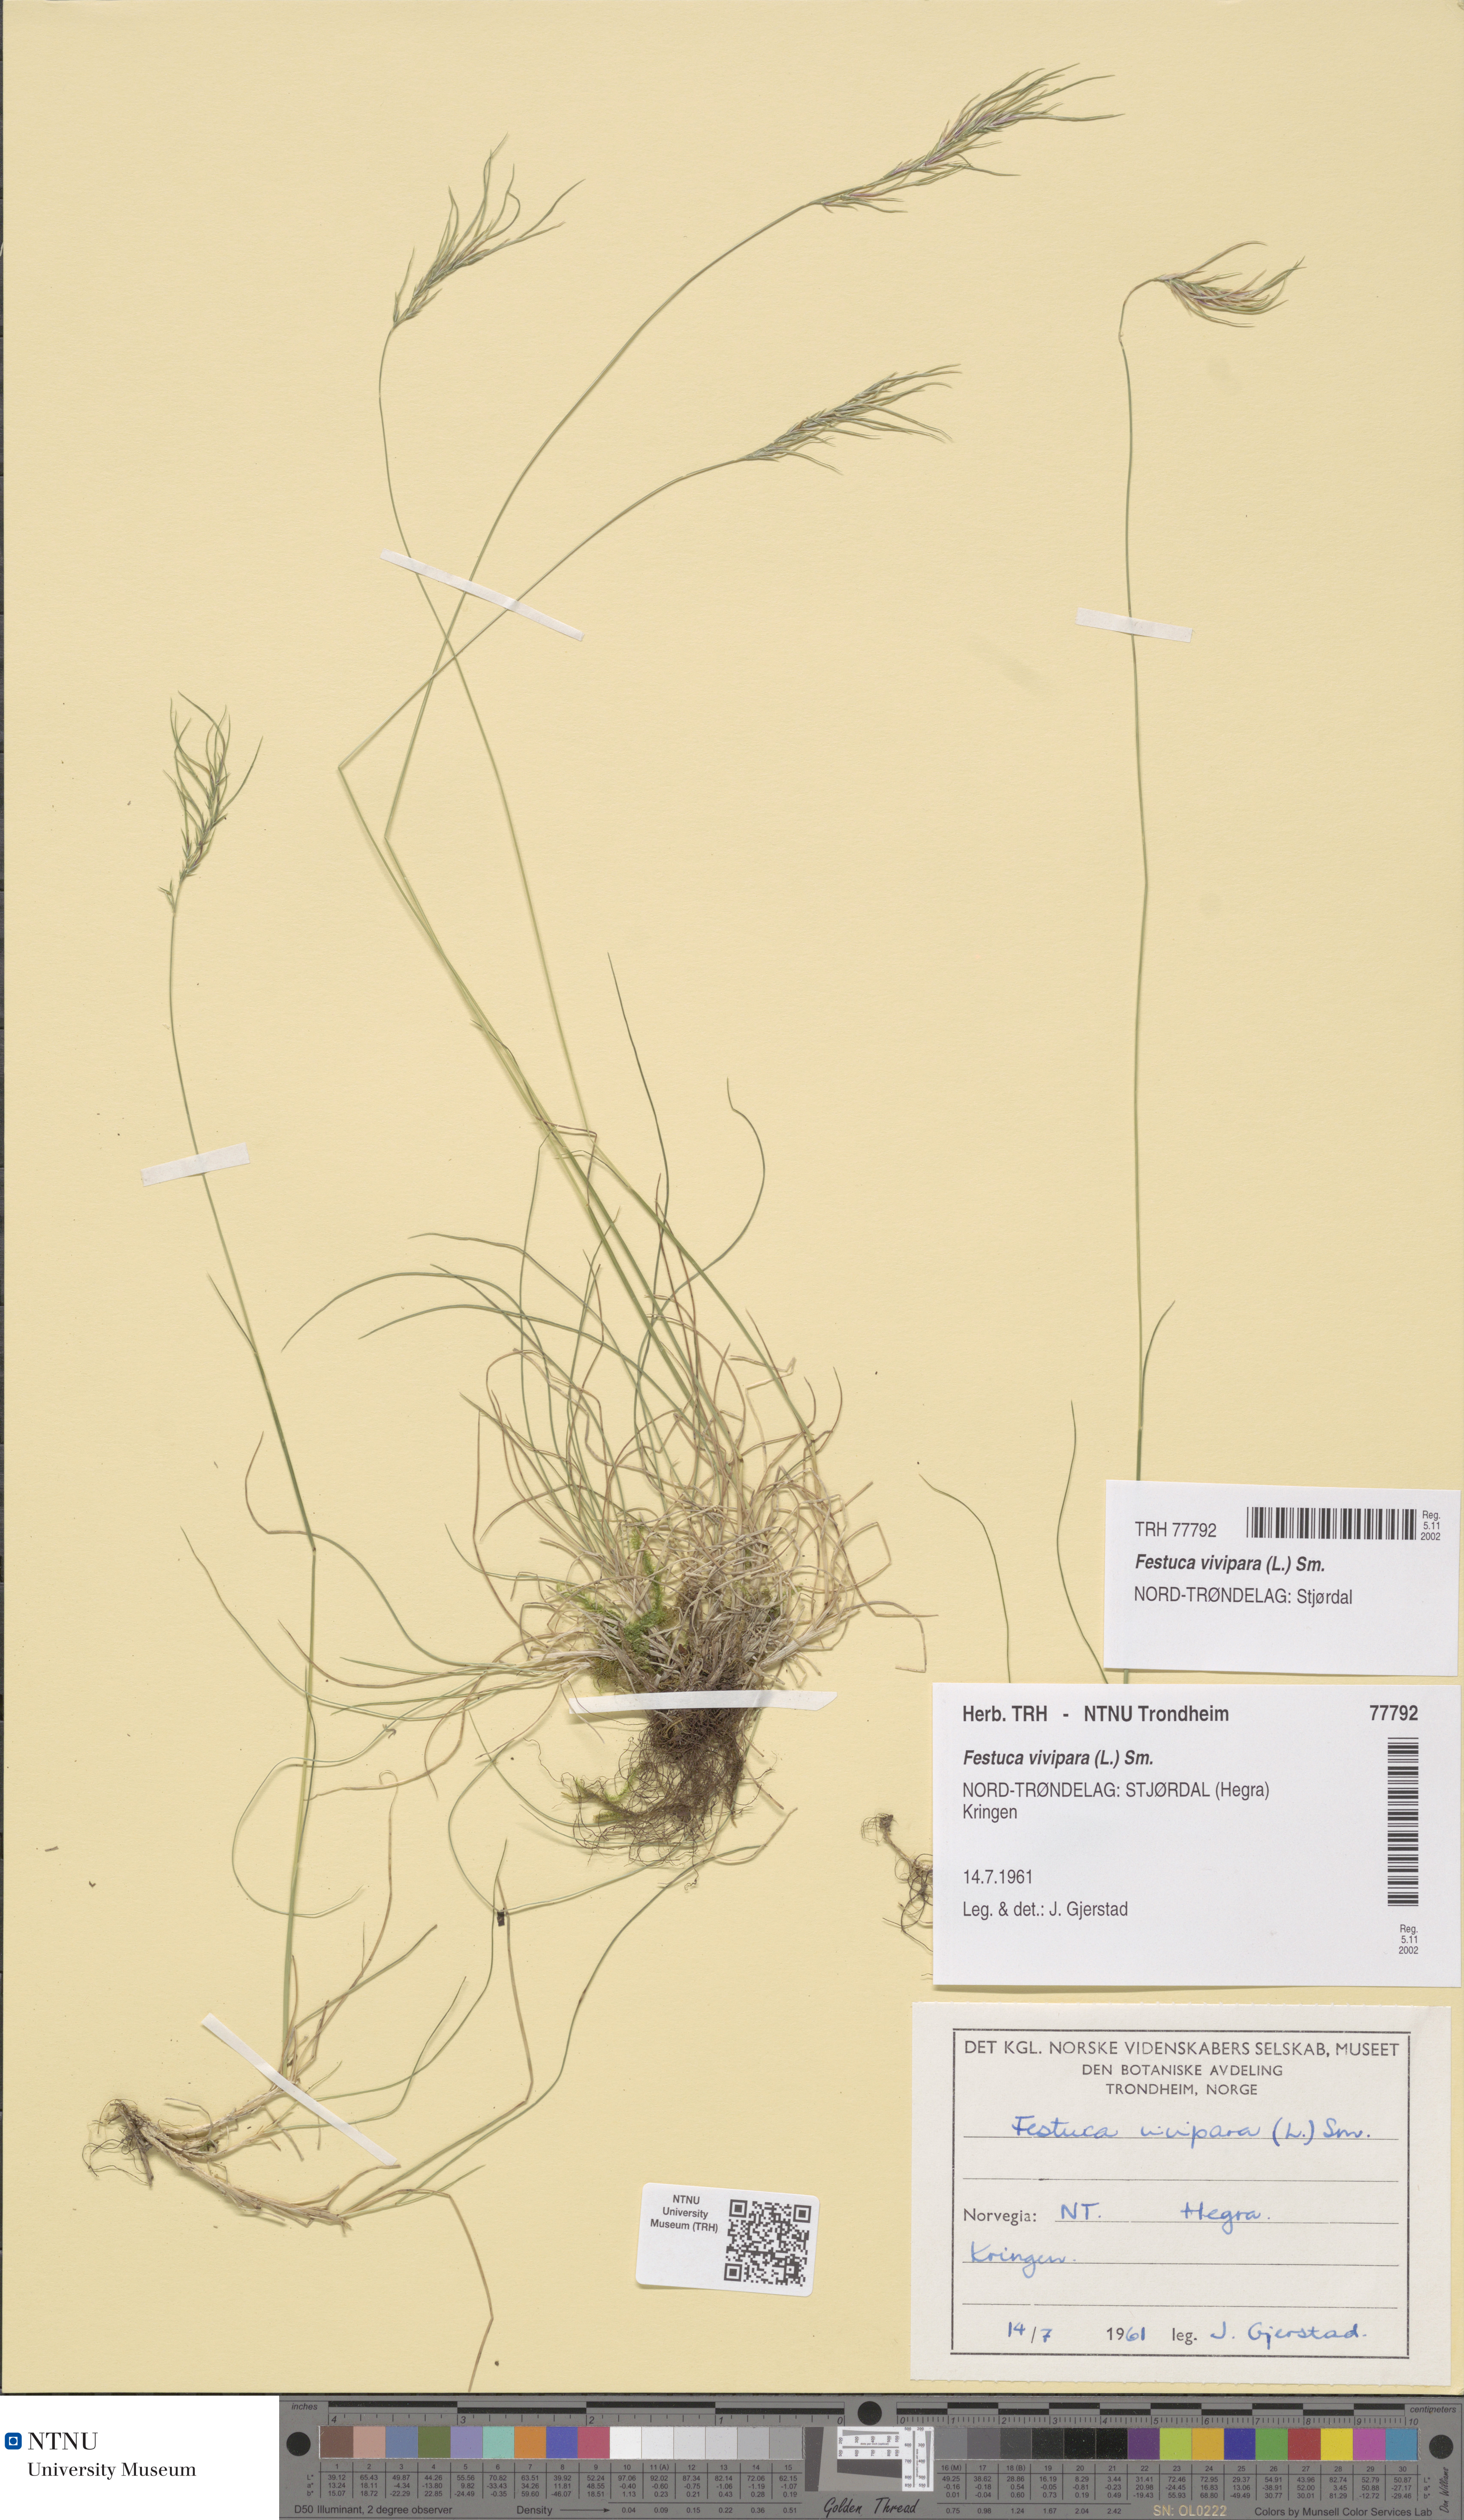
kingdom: Plantae
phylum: Tracheophyta
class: Liliopsida
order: Poales
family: Poaceae
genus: Festuca
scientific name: Festuca vivipara
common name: Viviparous sheep's-fescue
